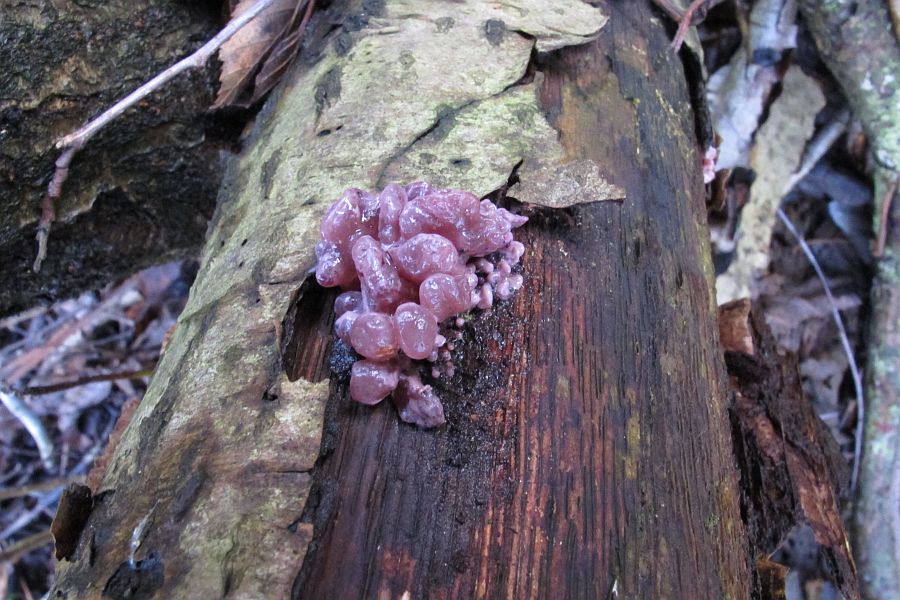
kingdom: Fungi
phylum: Ascomycota
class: Leotiomycetes
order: Helotiales
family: Gelatinodiscaceae
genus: Ascocoryne
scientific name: Ascocoryne sarcoides
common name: rødlilla sejskive
